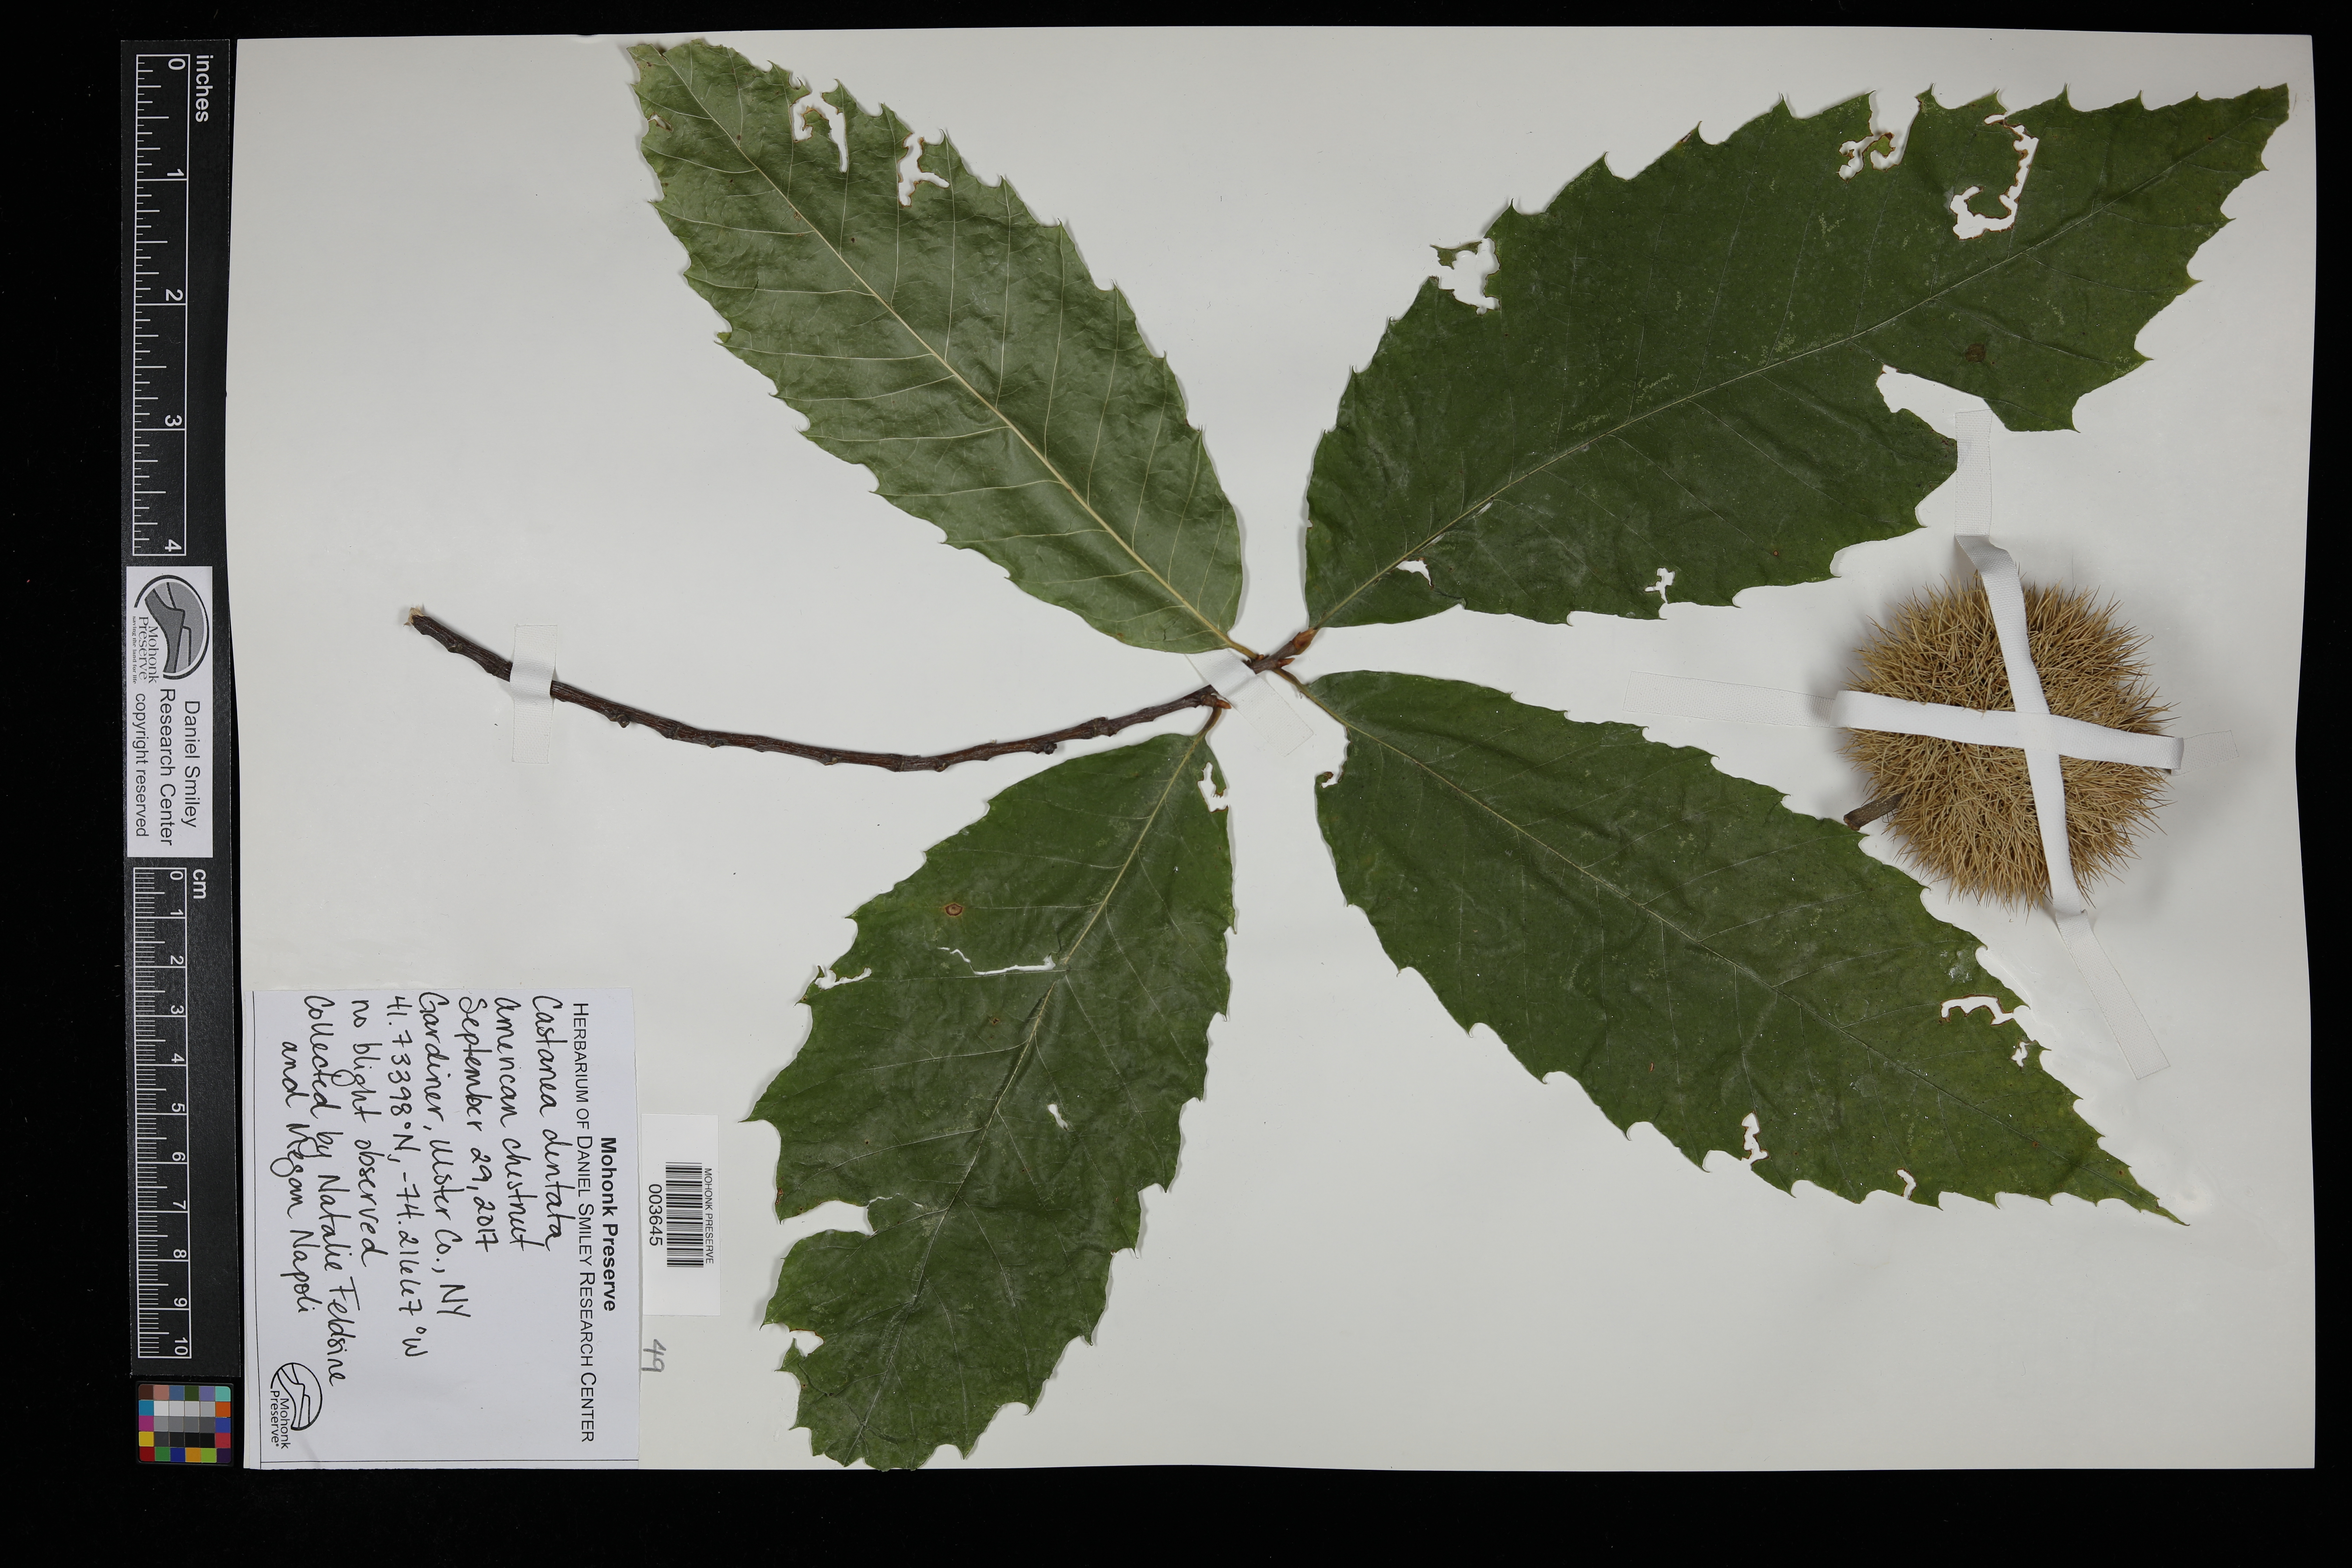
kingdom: Plantae
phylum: Tracheophyta
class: Magnoliopsida
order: Fagales
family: Fagaceae
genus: Castanea
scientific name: Castanea dentata
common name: American chestnut
